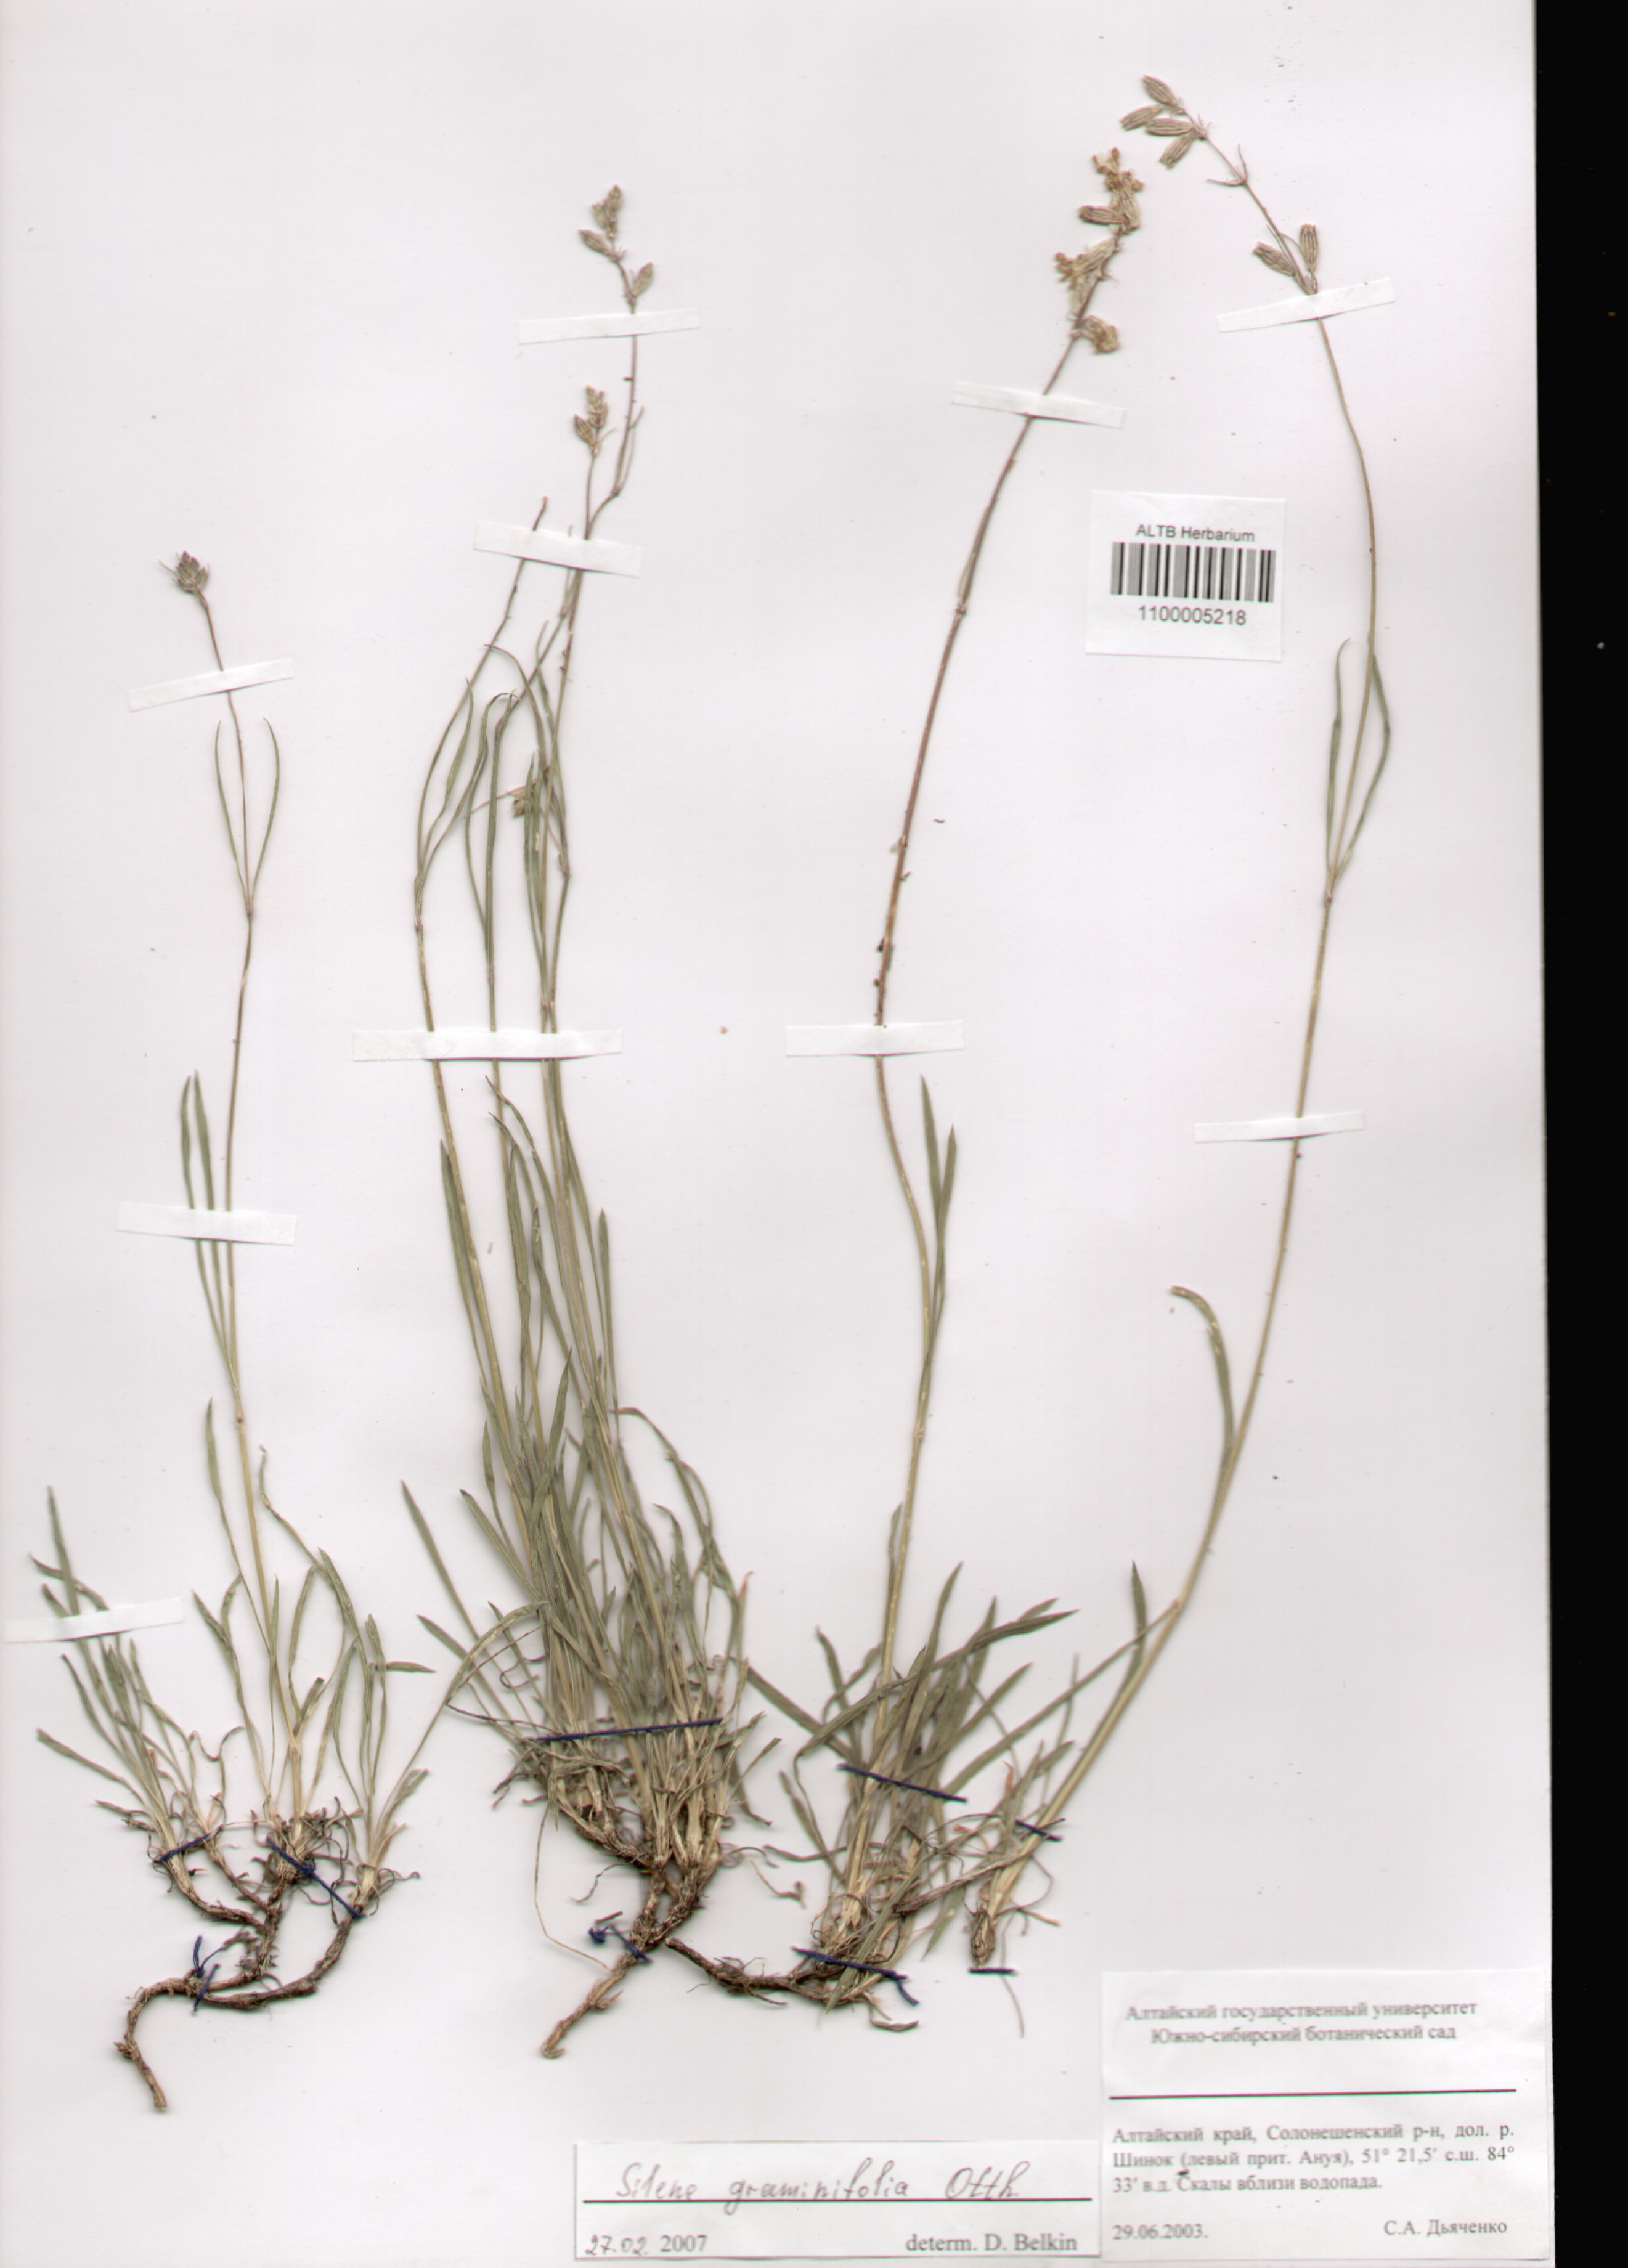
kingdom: Plantae
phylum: Tracheophyta
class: Magnoliopsida
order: Caryophyllales
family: Caryophyllaceae
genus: Silene
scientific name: Silene graminifolia
